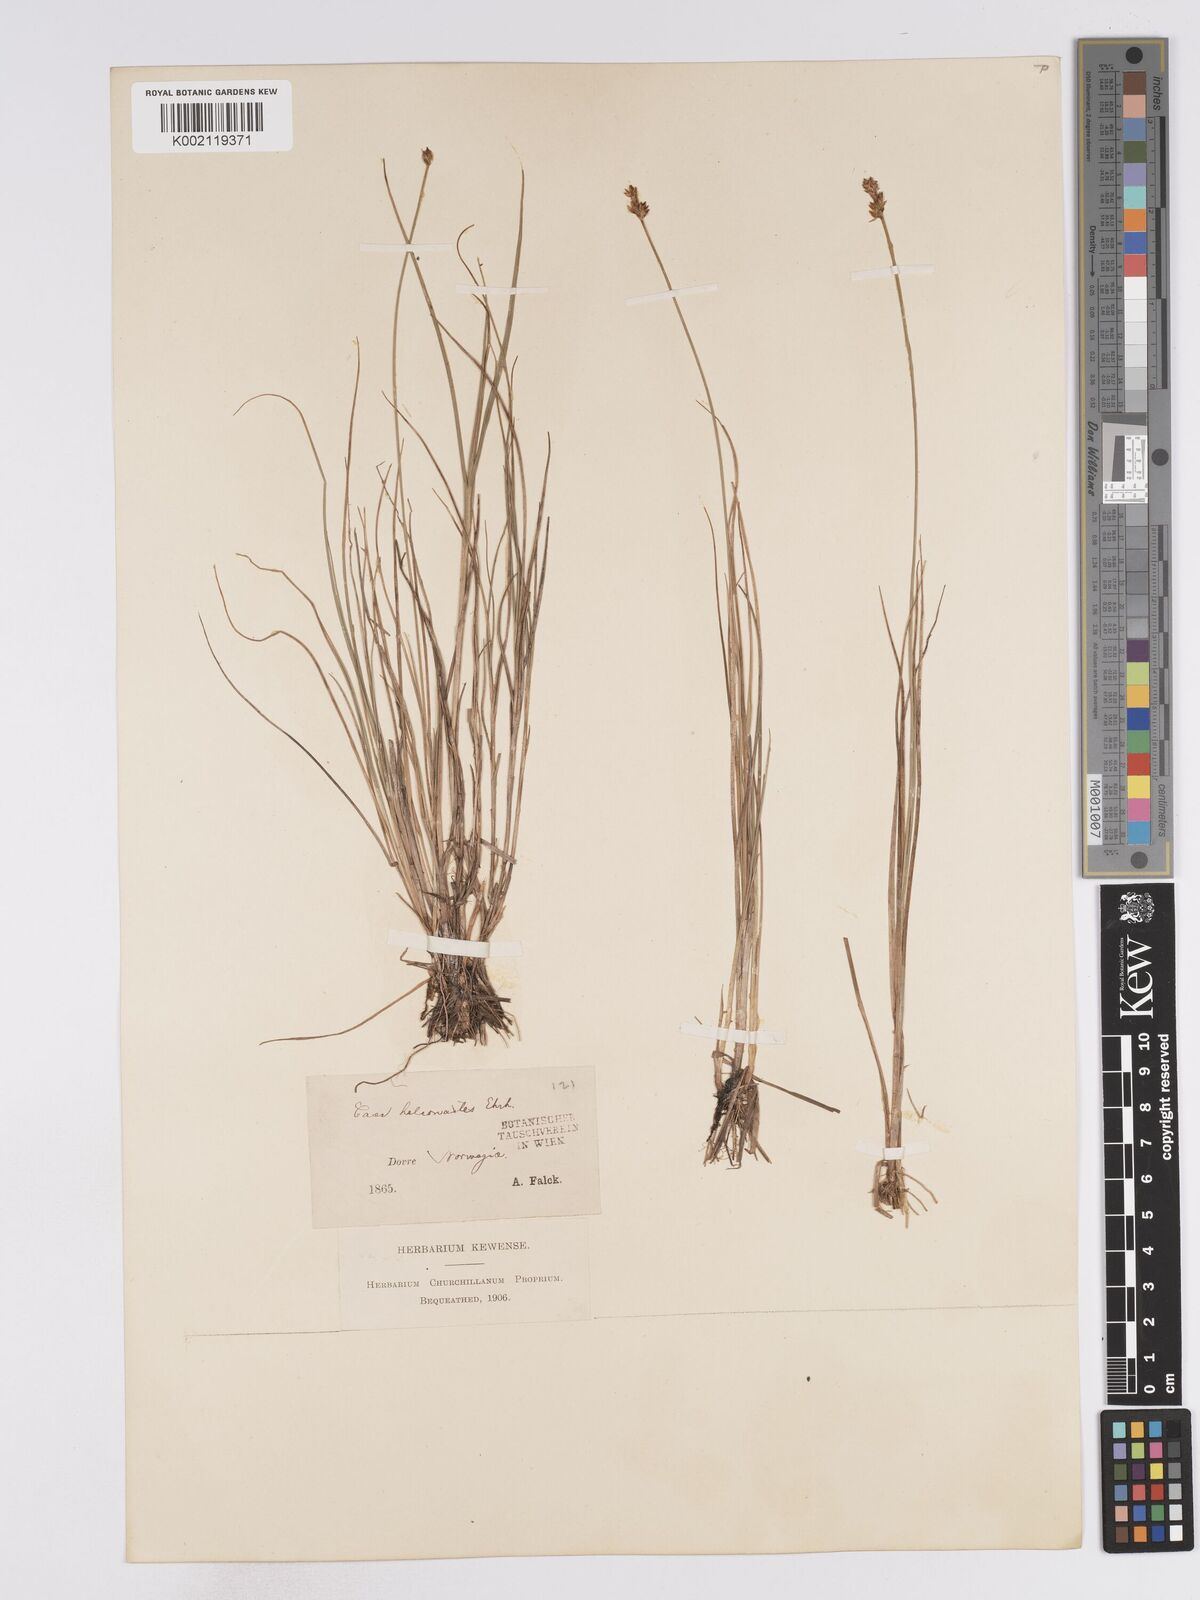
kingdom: Plantae
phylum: Tracheophyta
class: Liliopsida
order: Poales
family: Cyperaceae
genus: Carex
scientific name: Carex heleonastes
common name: Hudson bay sedge
